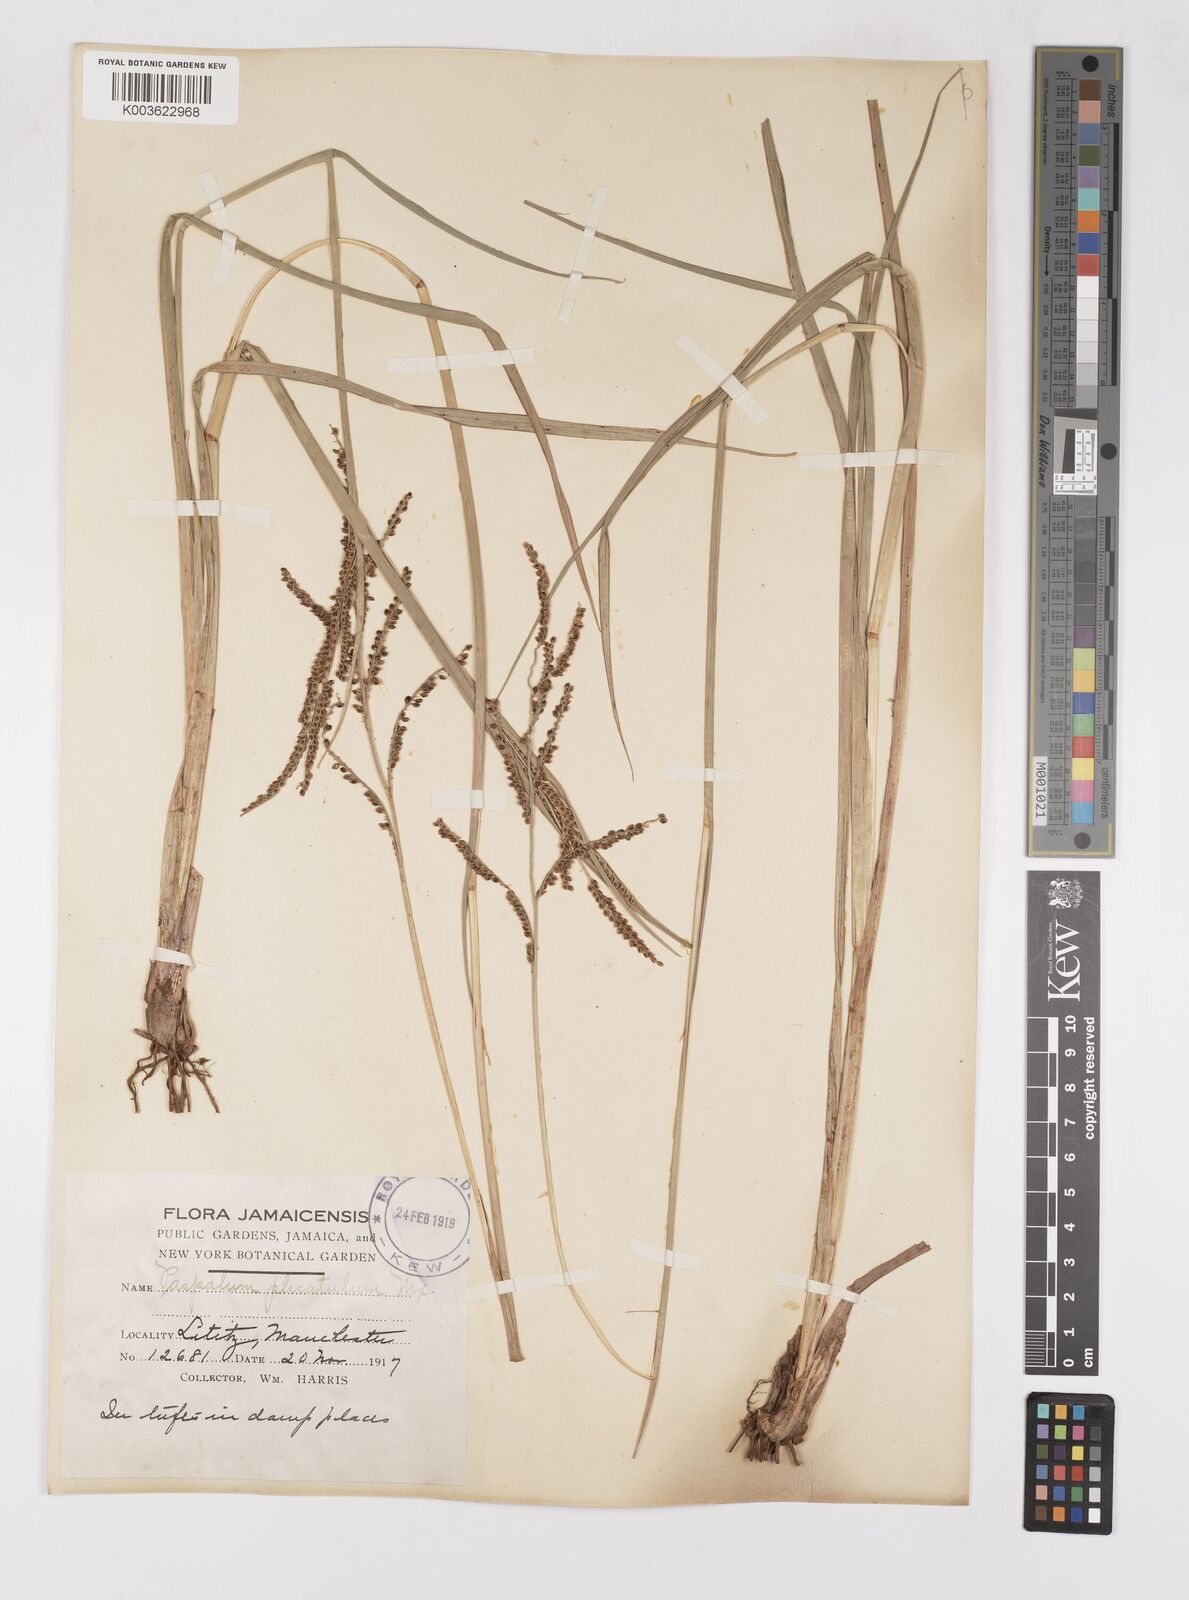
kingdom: Plantae
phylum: Tracheophyta
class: Liliopsida
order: Poales
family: Poaceae
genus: Paspalum
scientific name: Paspalum
